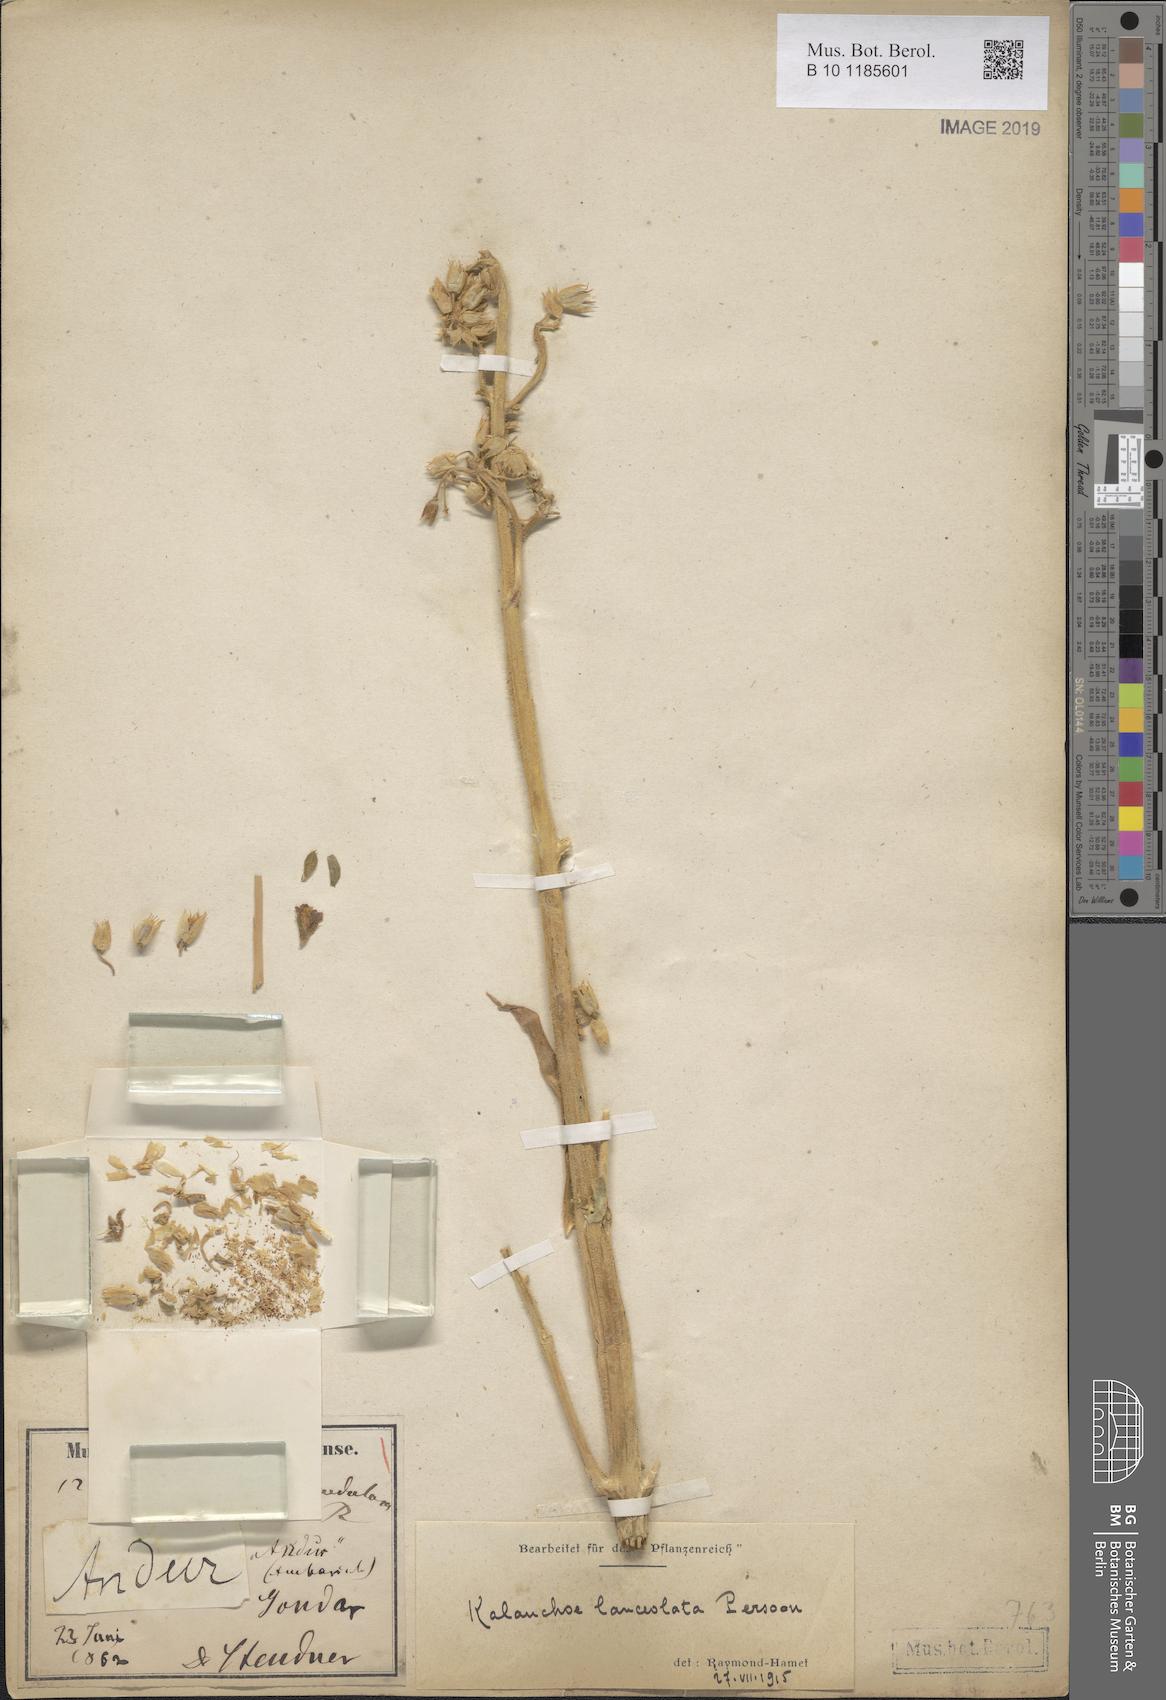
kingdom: Plantae
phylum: Tracheophyta
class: Magnoliopsida
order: Saxifragales
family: Crassulaceae
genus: Kalanchoe
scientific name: Kalanchoe lanceolata
